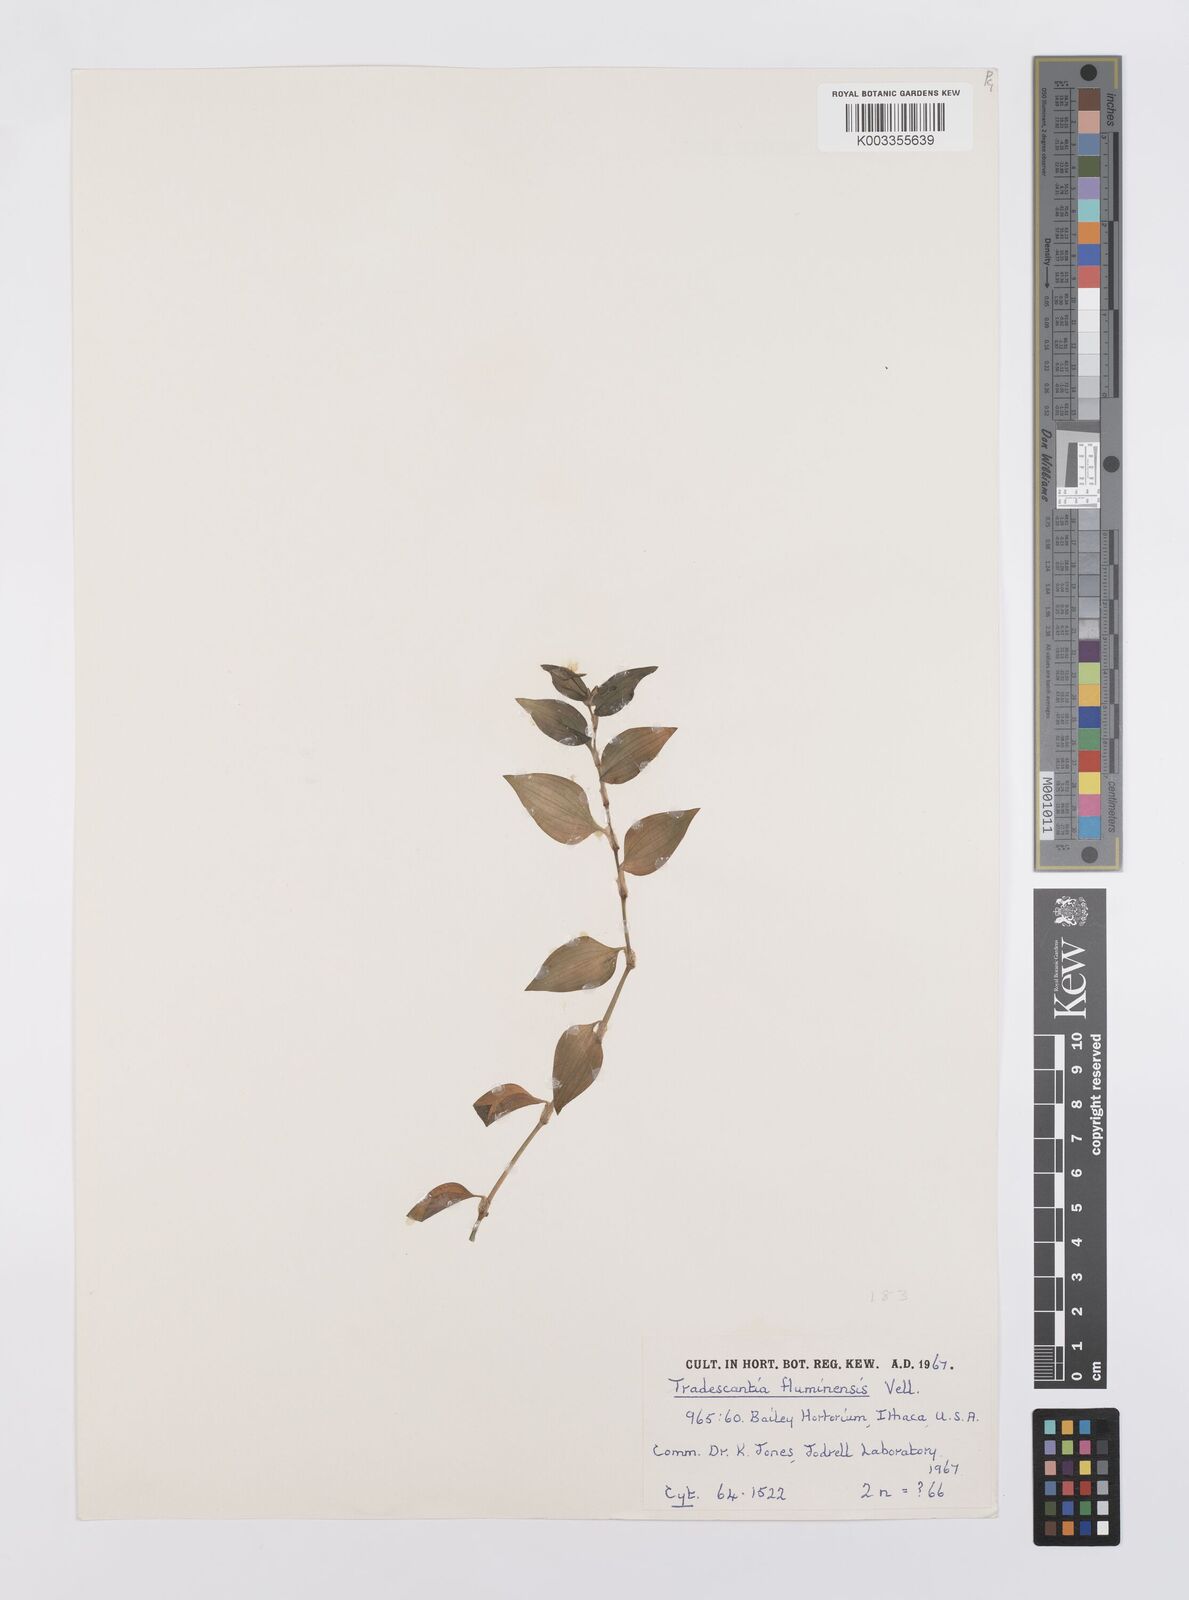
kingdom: Plantae
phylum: Tracheophyta
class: Liliopsida
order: Commelinales
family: Commelinaceae
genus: Tradescantia
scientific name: Tradescantia fluminensis
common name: Wandering-jew
